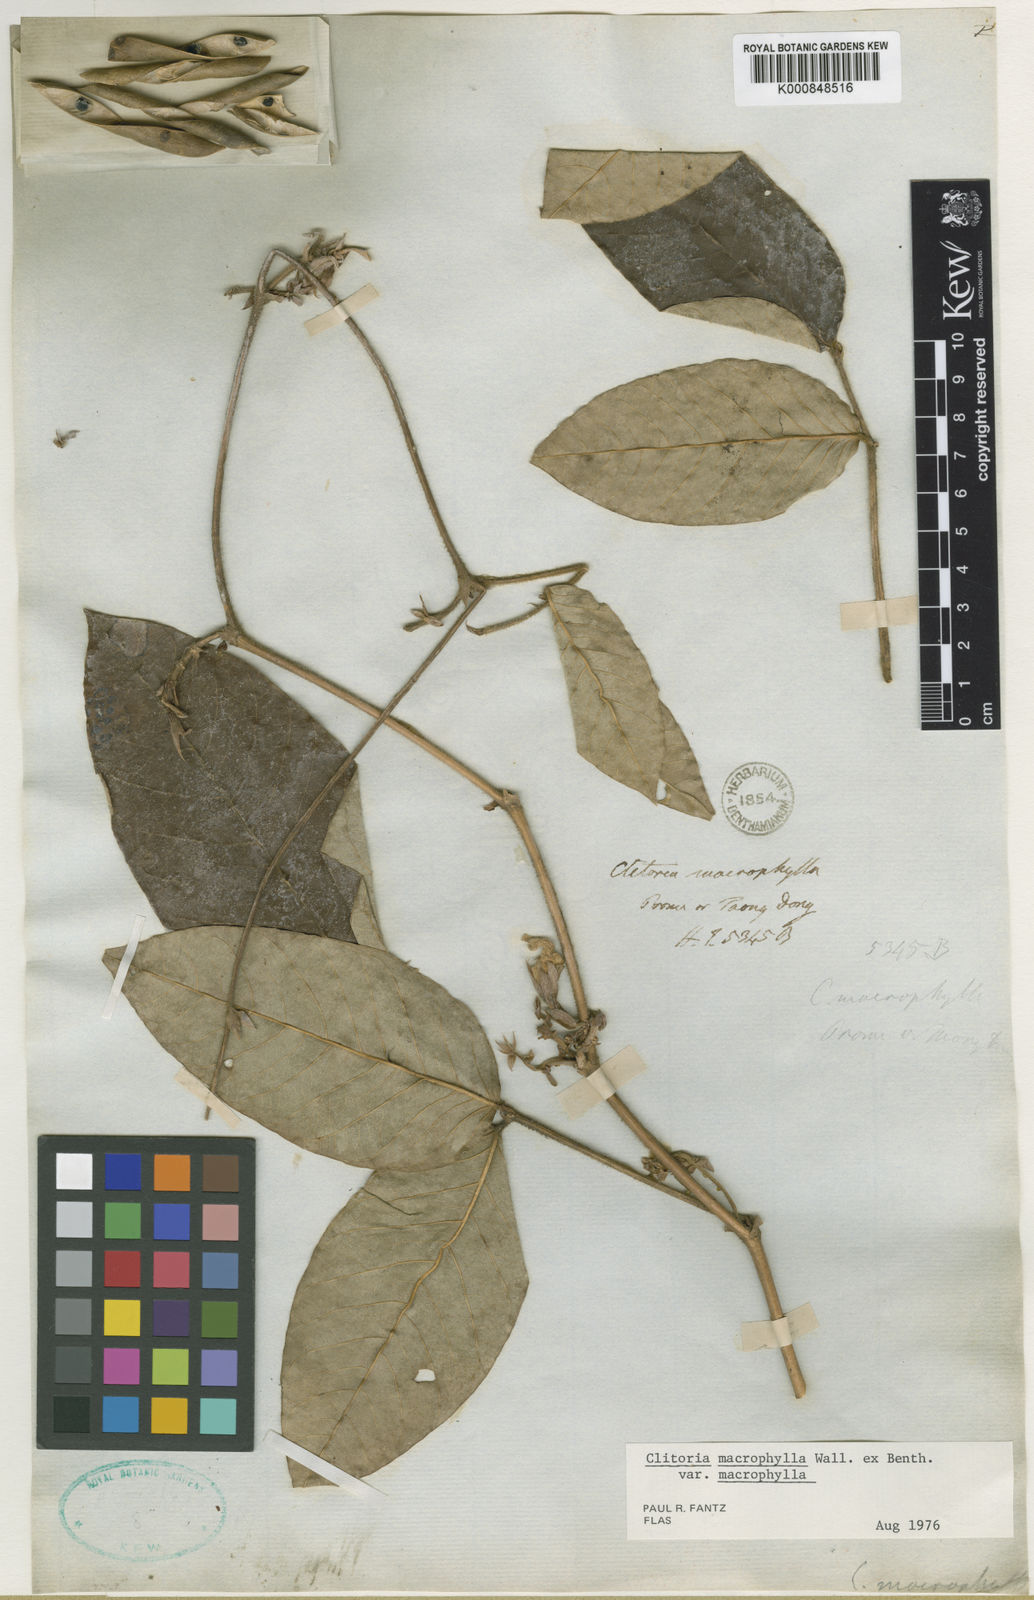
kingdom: Plantae
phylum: Tracheophyta
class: Magnoliopsida
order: Fabales
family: Fabaceae
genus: Clitoria
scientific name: Clitoria macrophylla
